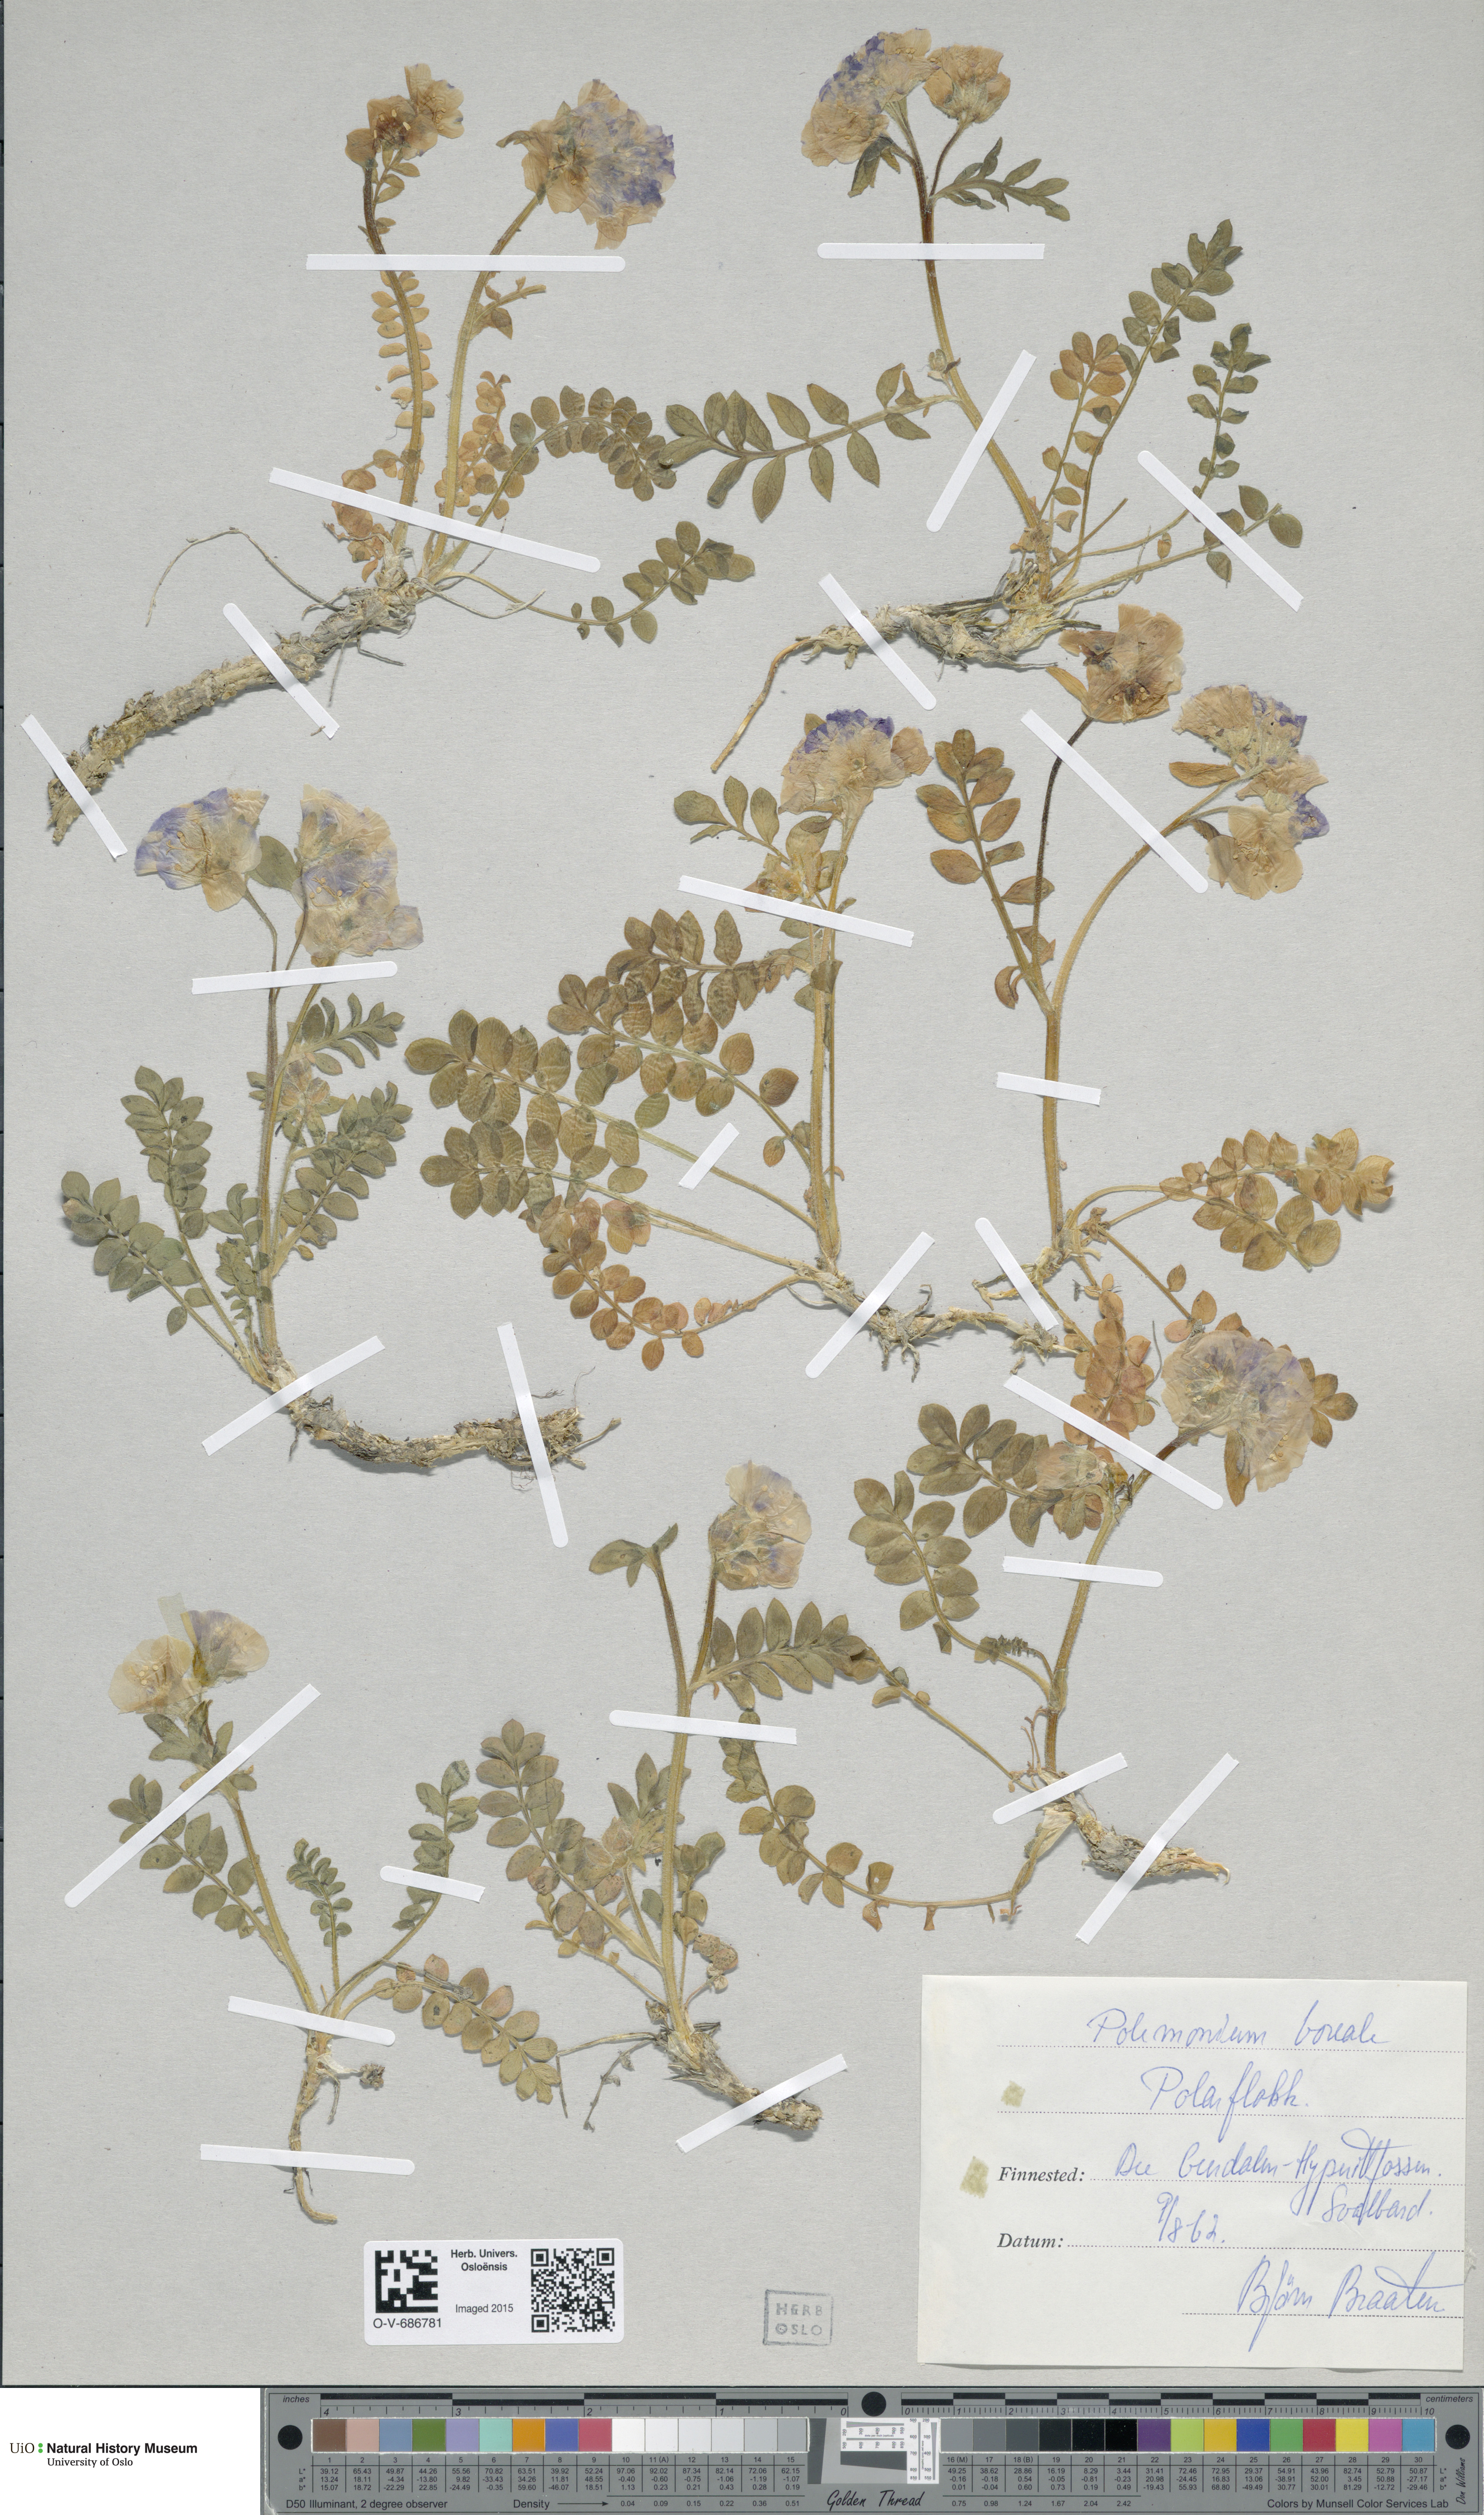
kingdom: Plantae
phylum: Tracheophyta
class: Magnoliopsida
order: Ericales
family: Polemoniaceae
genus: Polemonium
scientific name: Polemonium boreale
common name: Boreal jacob's-ladder
